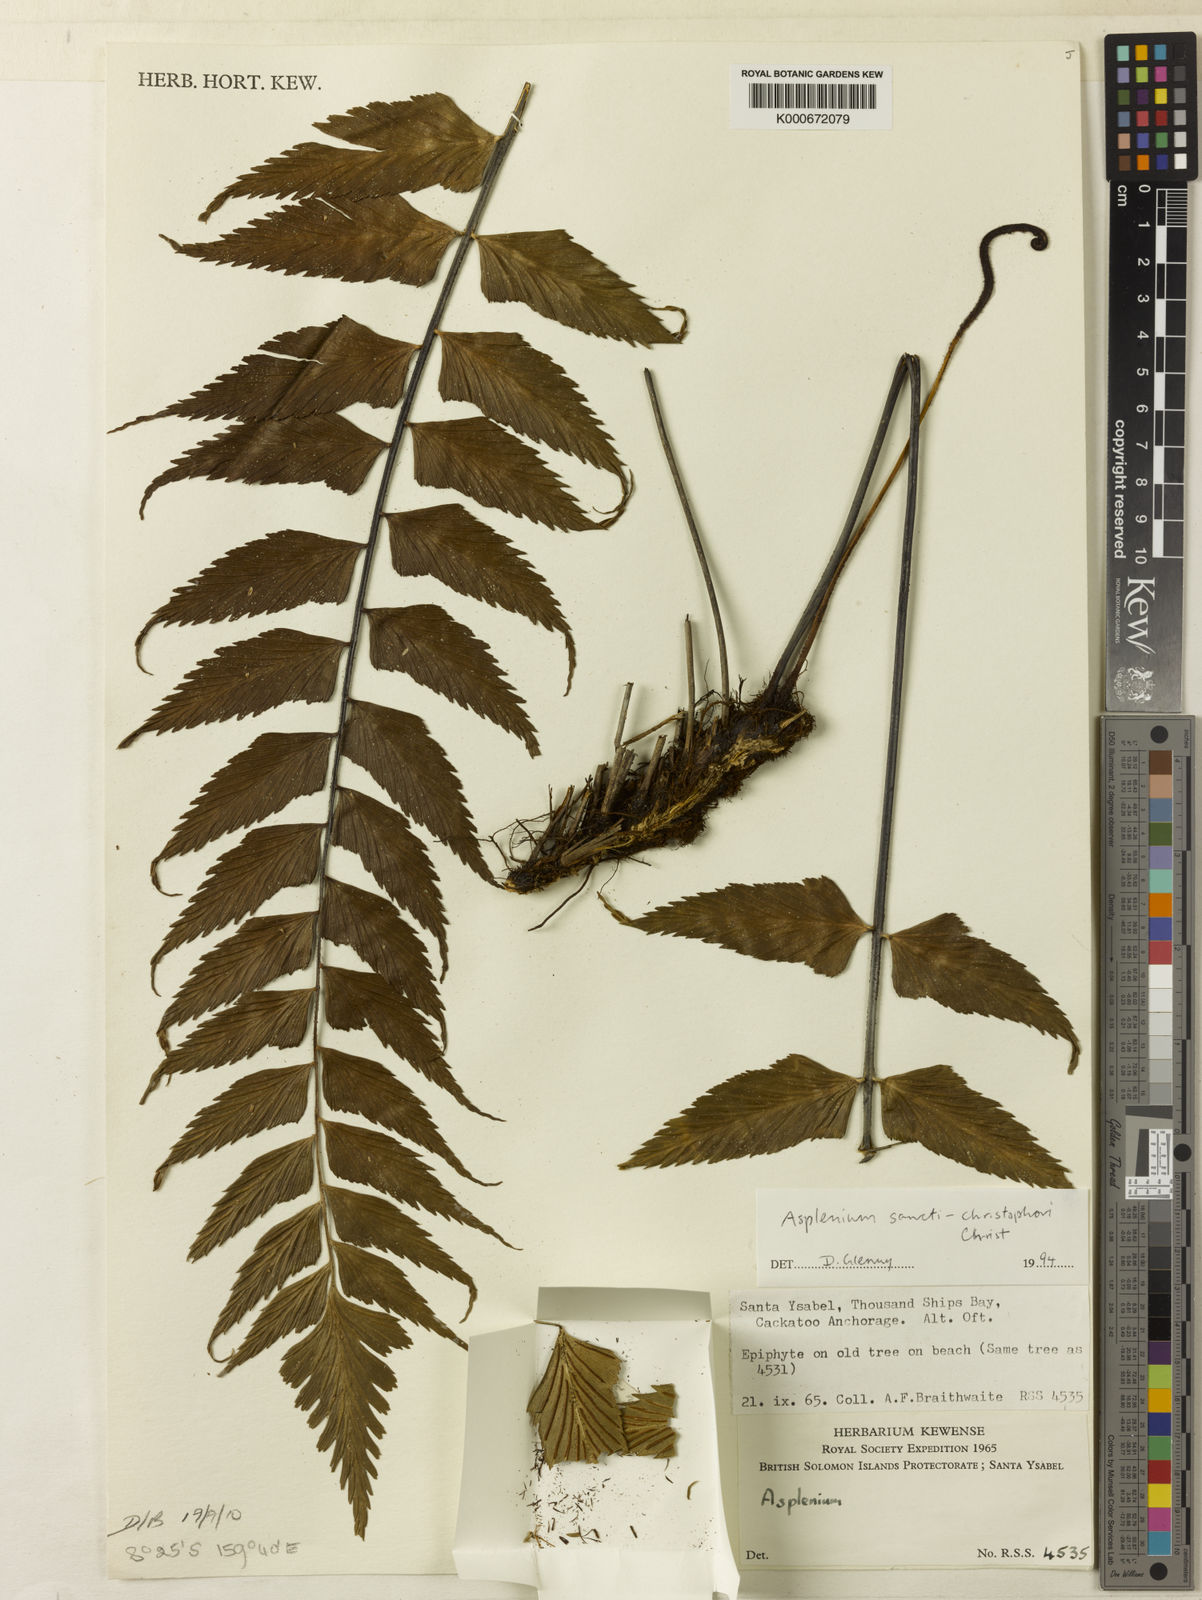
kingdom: Plantae
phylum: Tracheophyta
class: Polypodiopsida
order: Polypodiales
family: Aspleniaceae
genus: Asplenium
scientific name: Asplenium sancti-christofori
